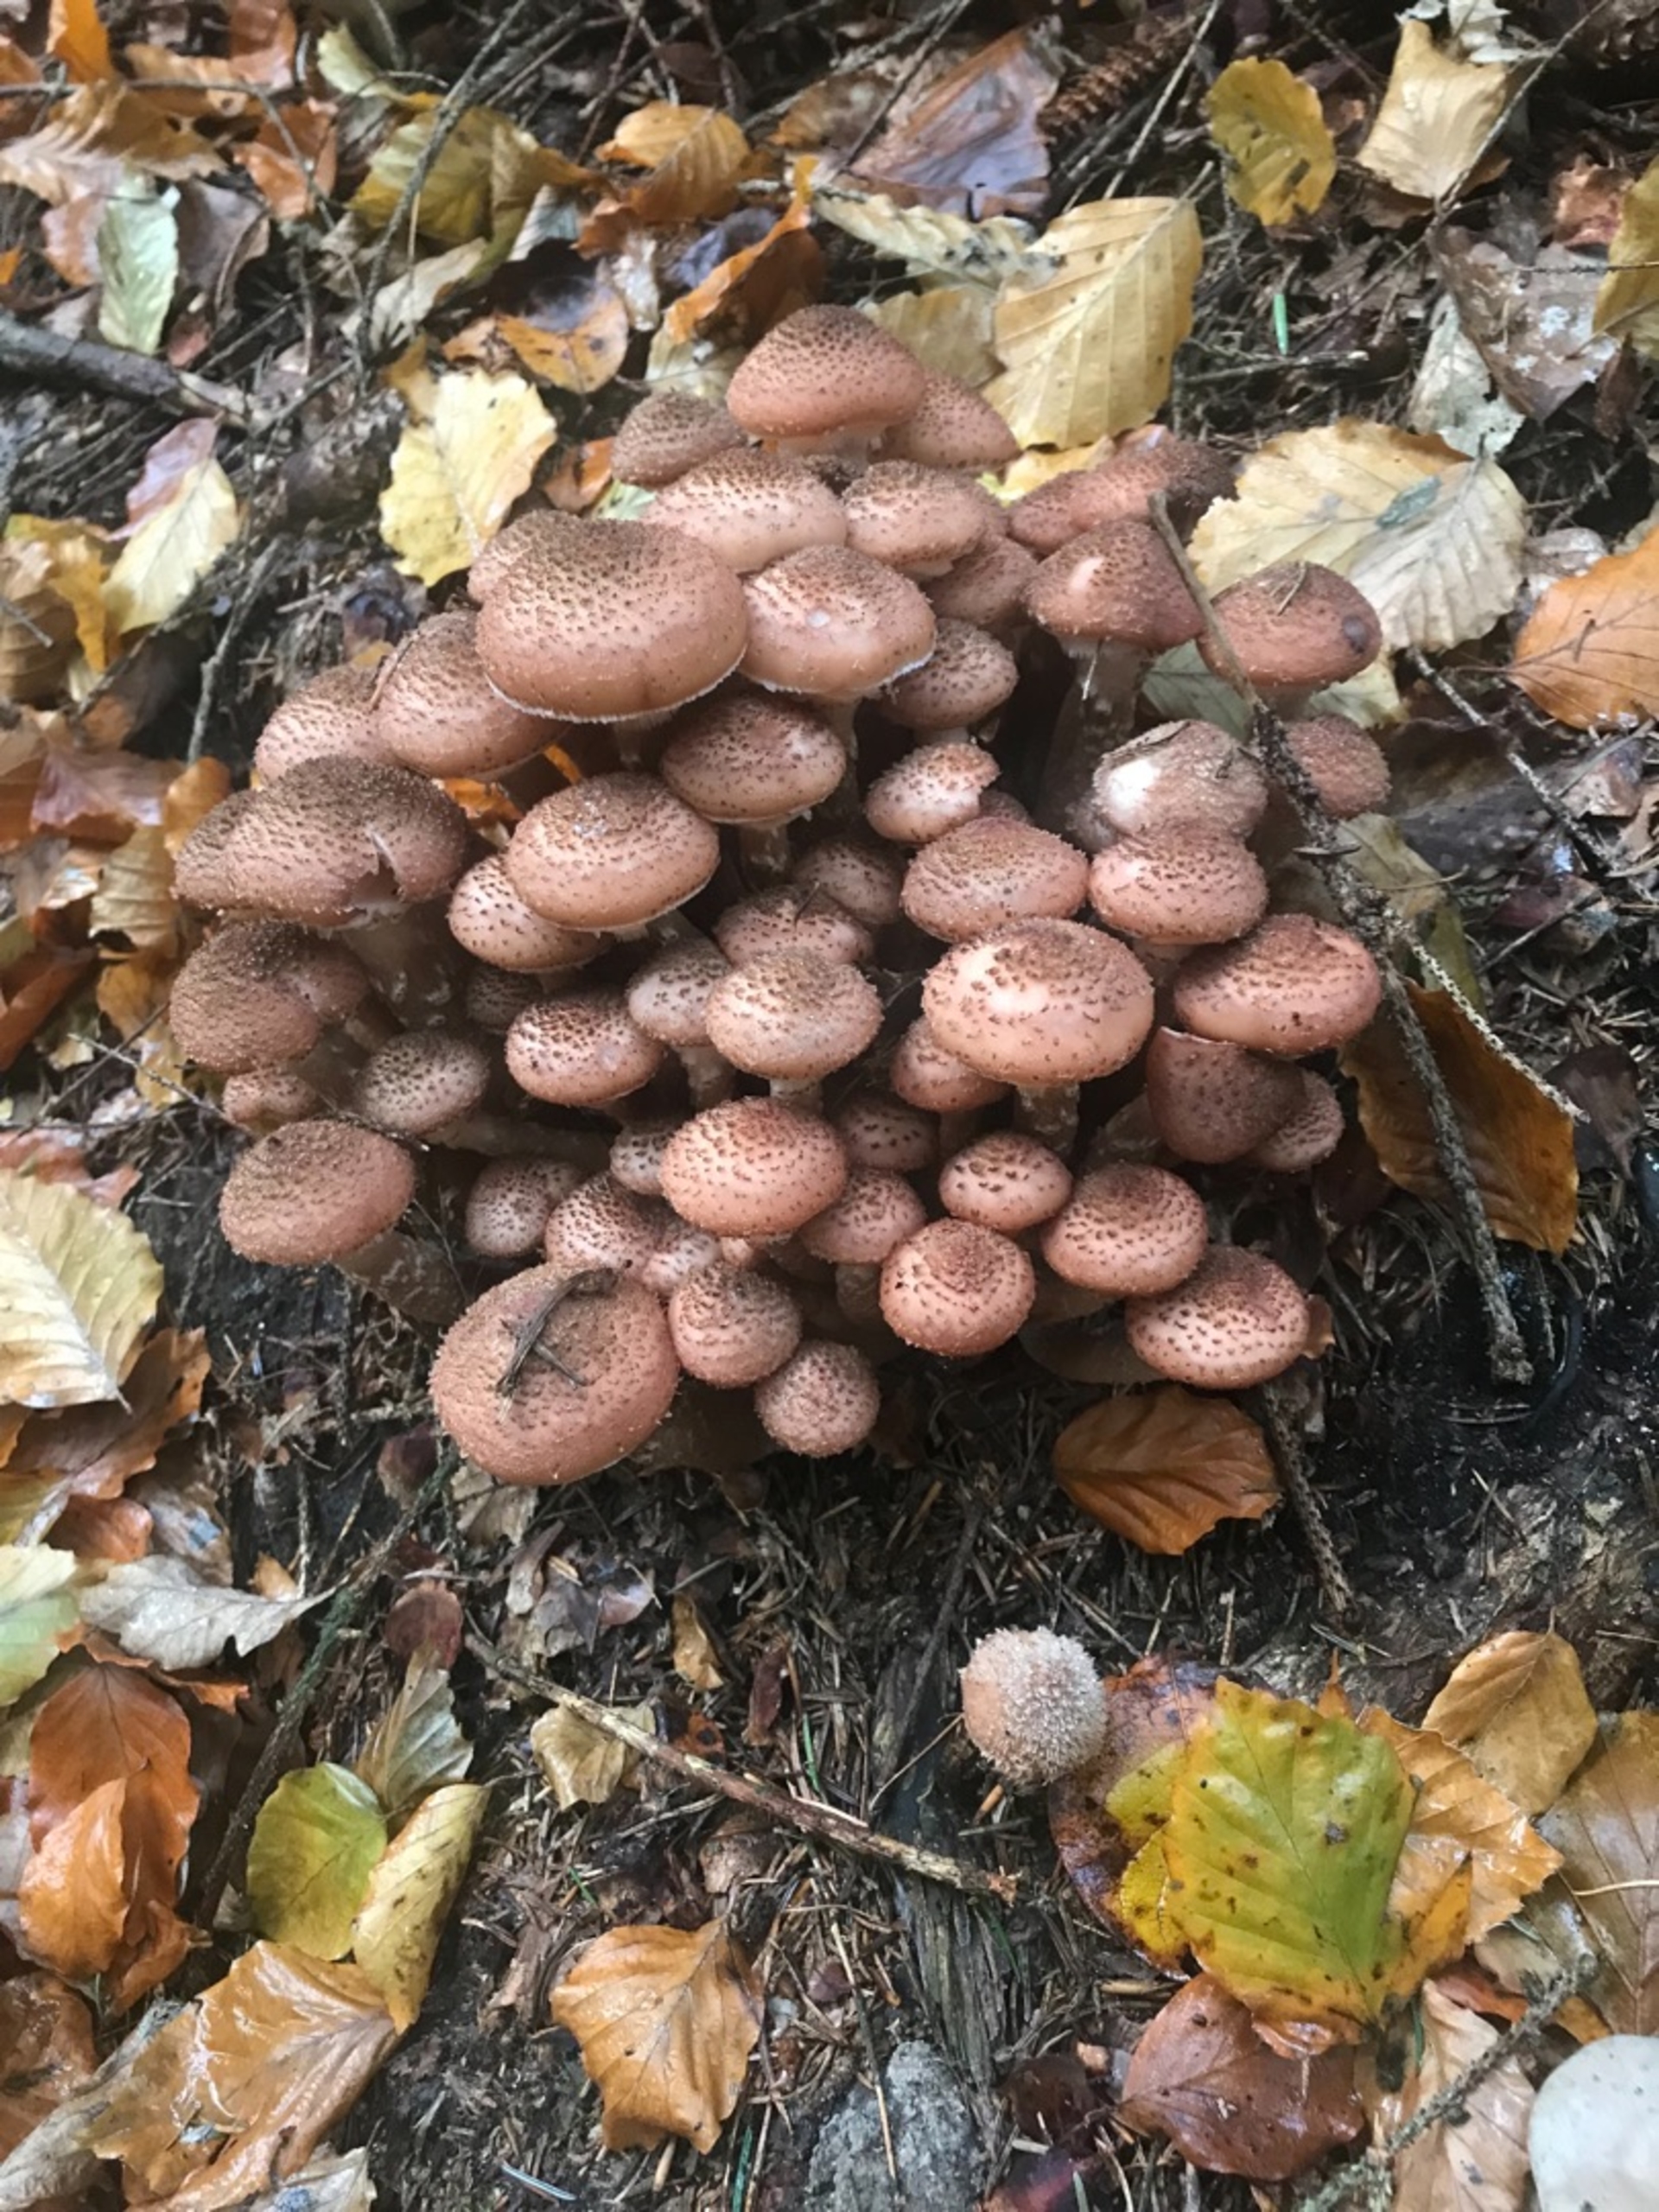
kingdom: Fungi
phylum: Basidiomycota
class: Agaricomycetes
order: Agaricales
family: Physalacriaceae
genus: Armillaria
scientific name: Armillaria ostoyae
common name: Mørk honningsvamp
